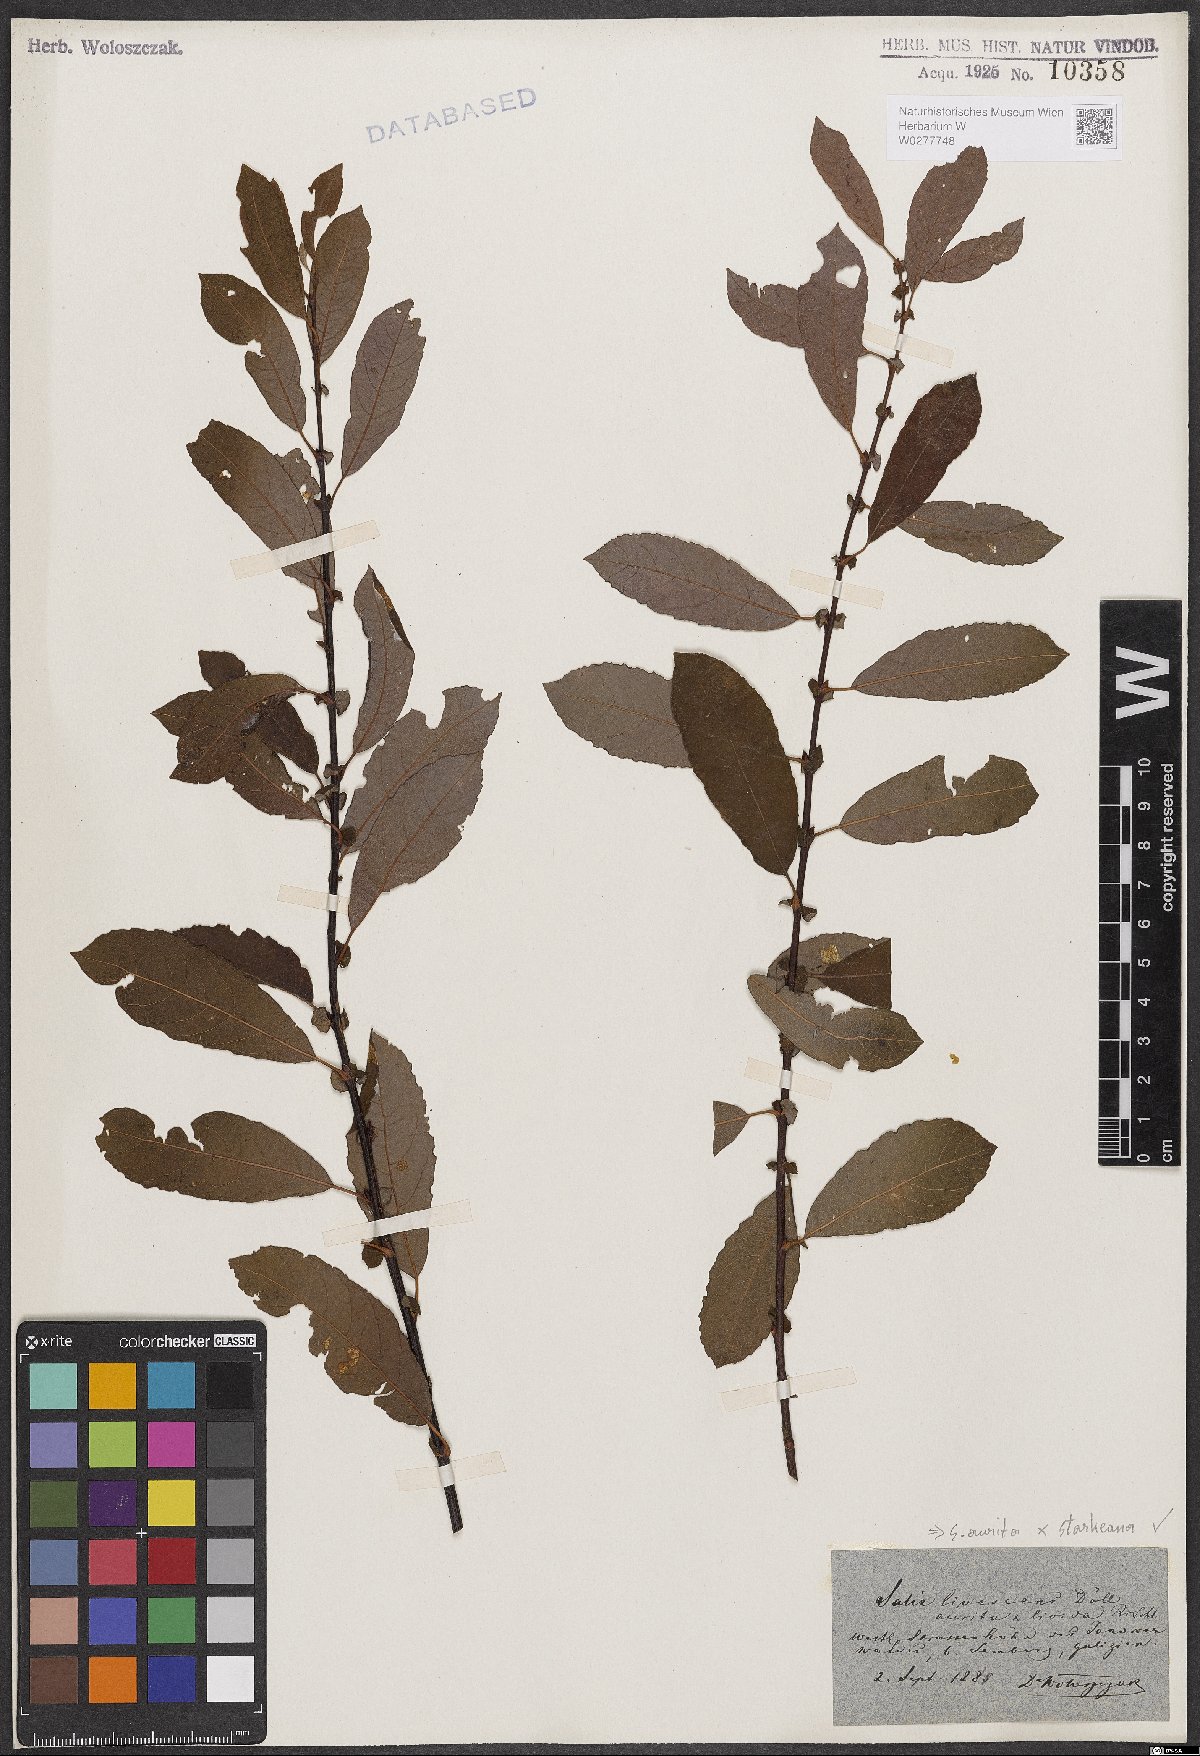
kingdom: Plantae
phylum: Tracheophyta
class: Magnoliopsida
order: Malpighiales
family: Salicaceae
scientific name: Salicaceae
